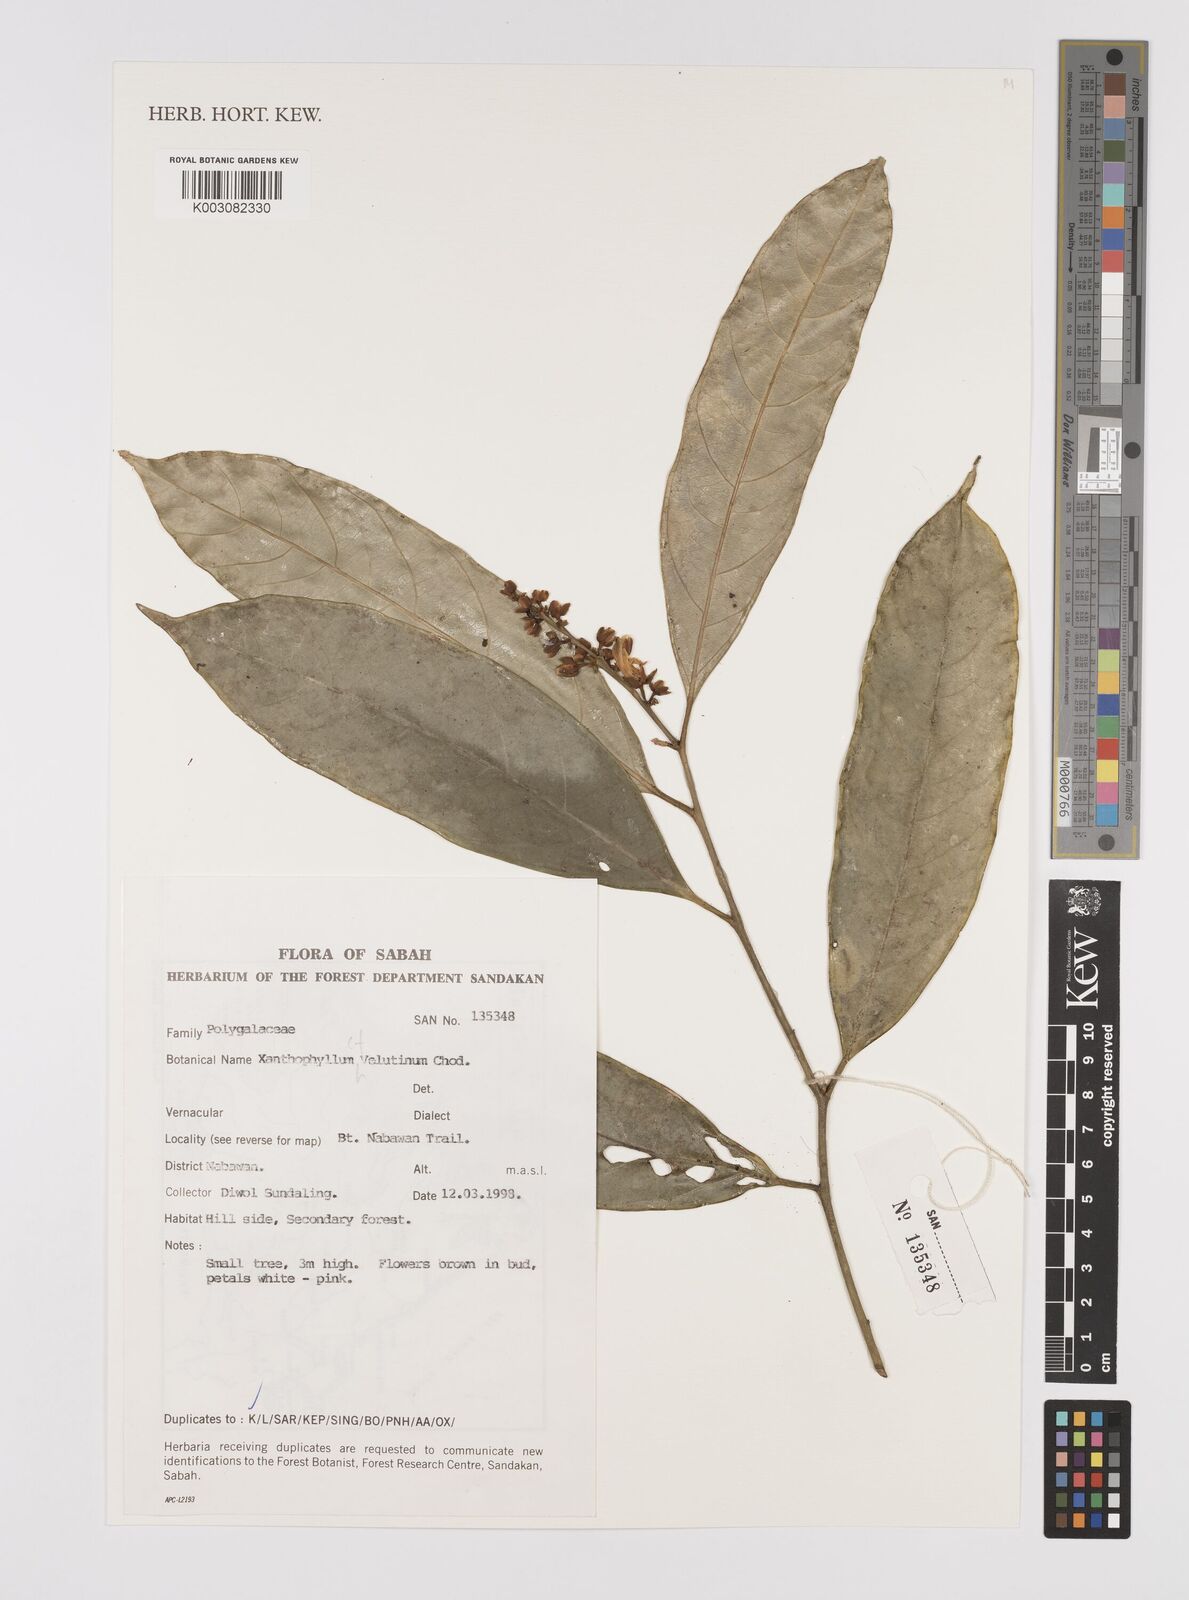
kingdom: Plantae
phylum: Tracheophyta
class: Magnoliopsida
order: Fabales
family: Polygalaceae
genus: Xanthophyllum
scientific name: Xanthophyllum velutinum
